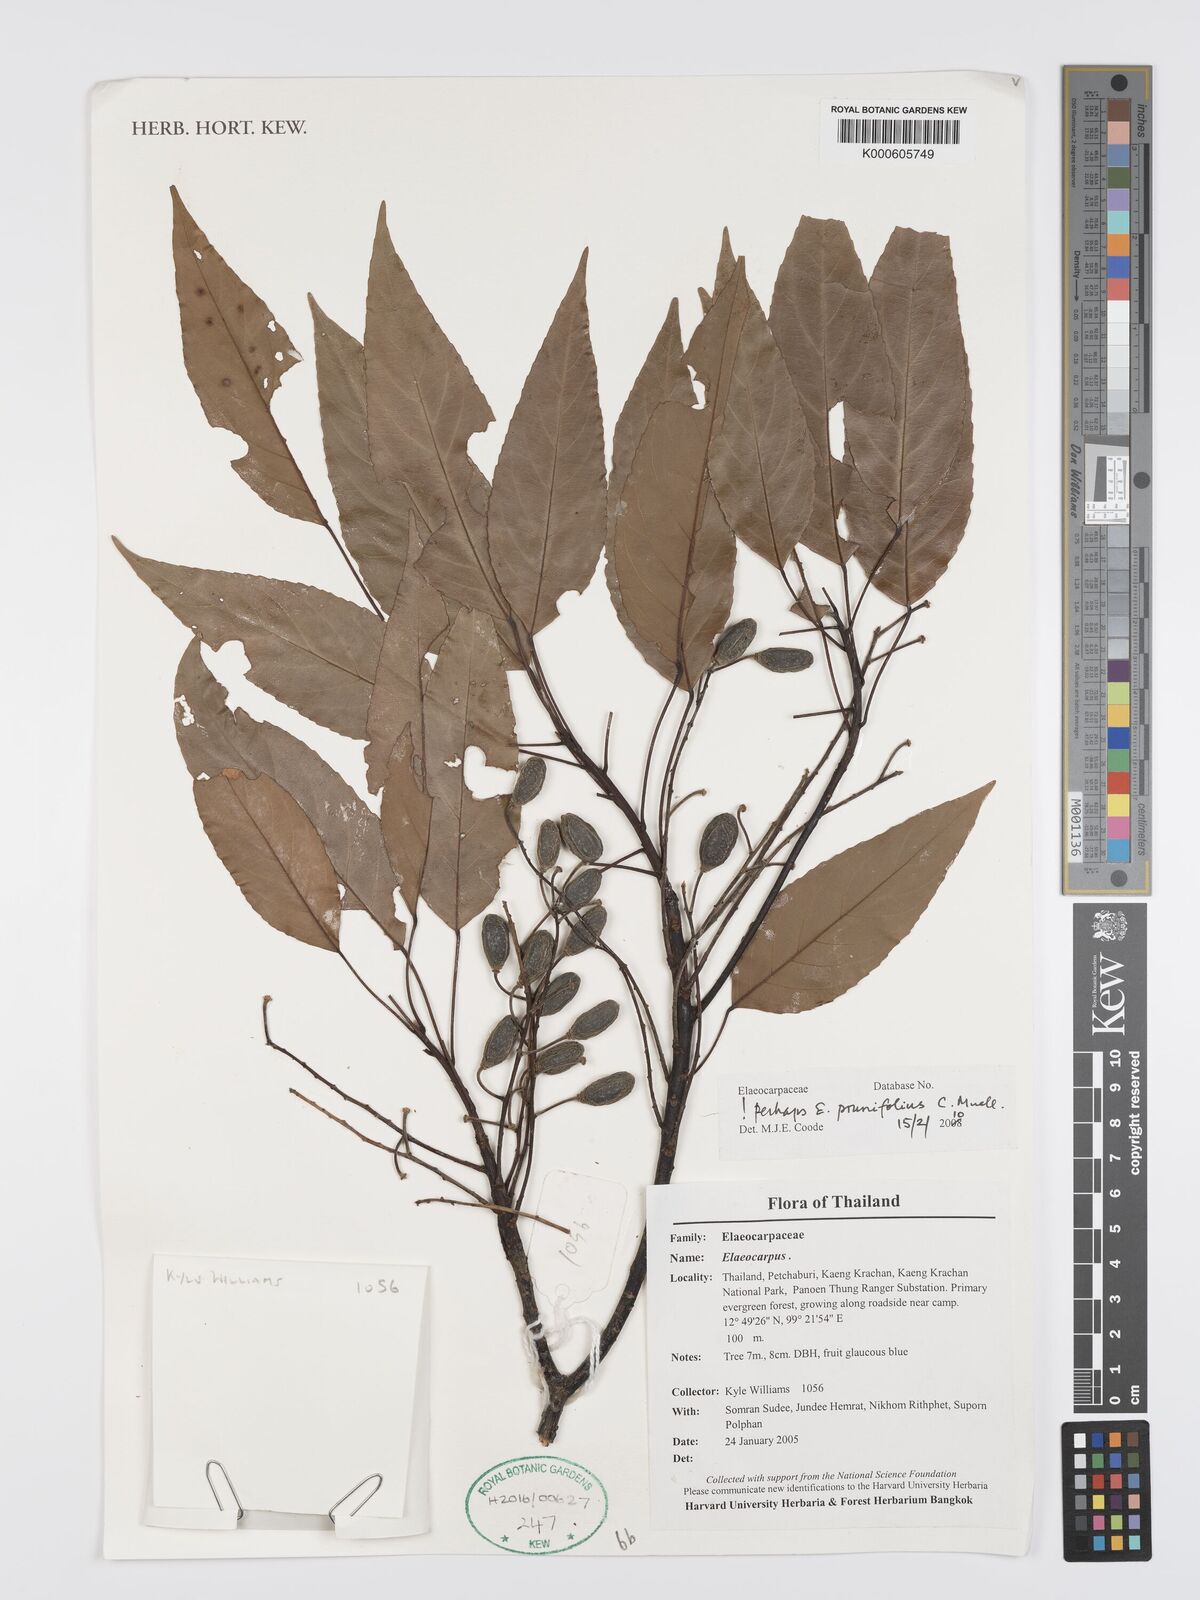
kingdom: Plantae
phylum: Tracheophyta
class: Magnoliopsida
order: Oxalidales
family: Elaeocarpaceae
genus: Elaeocarpus
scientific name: Elaeocarpus
